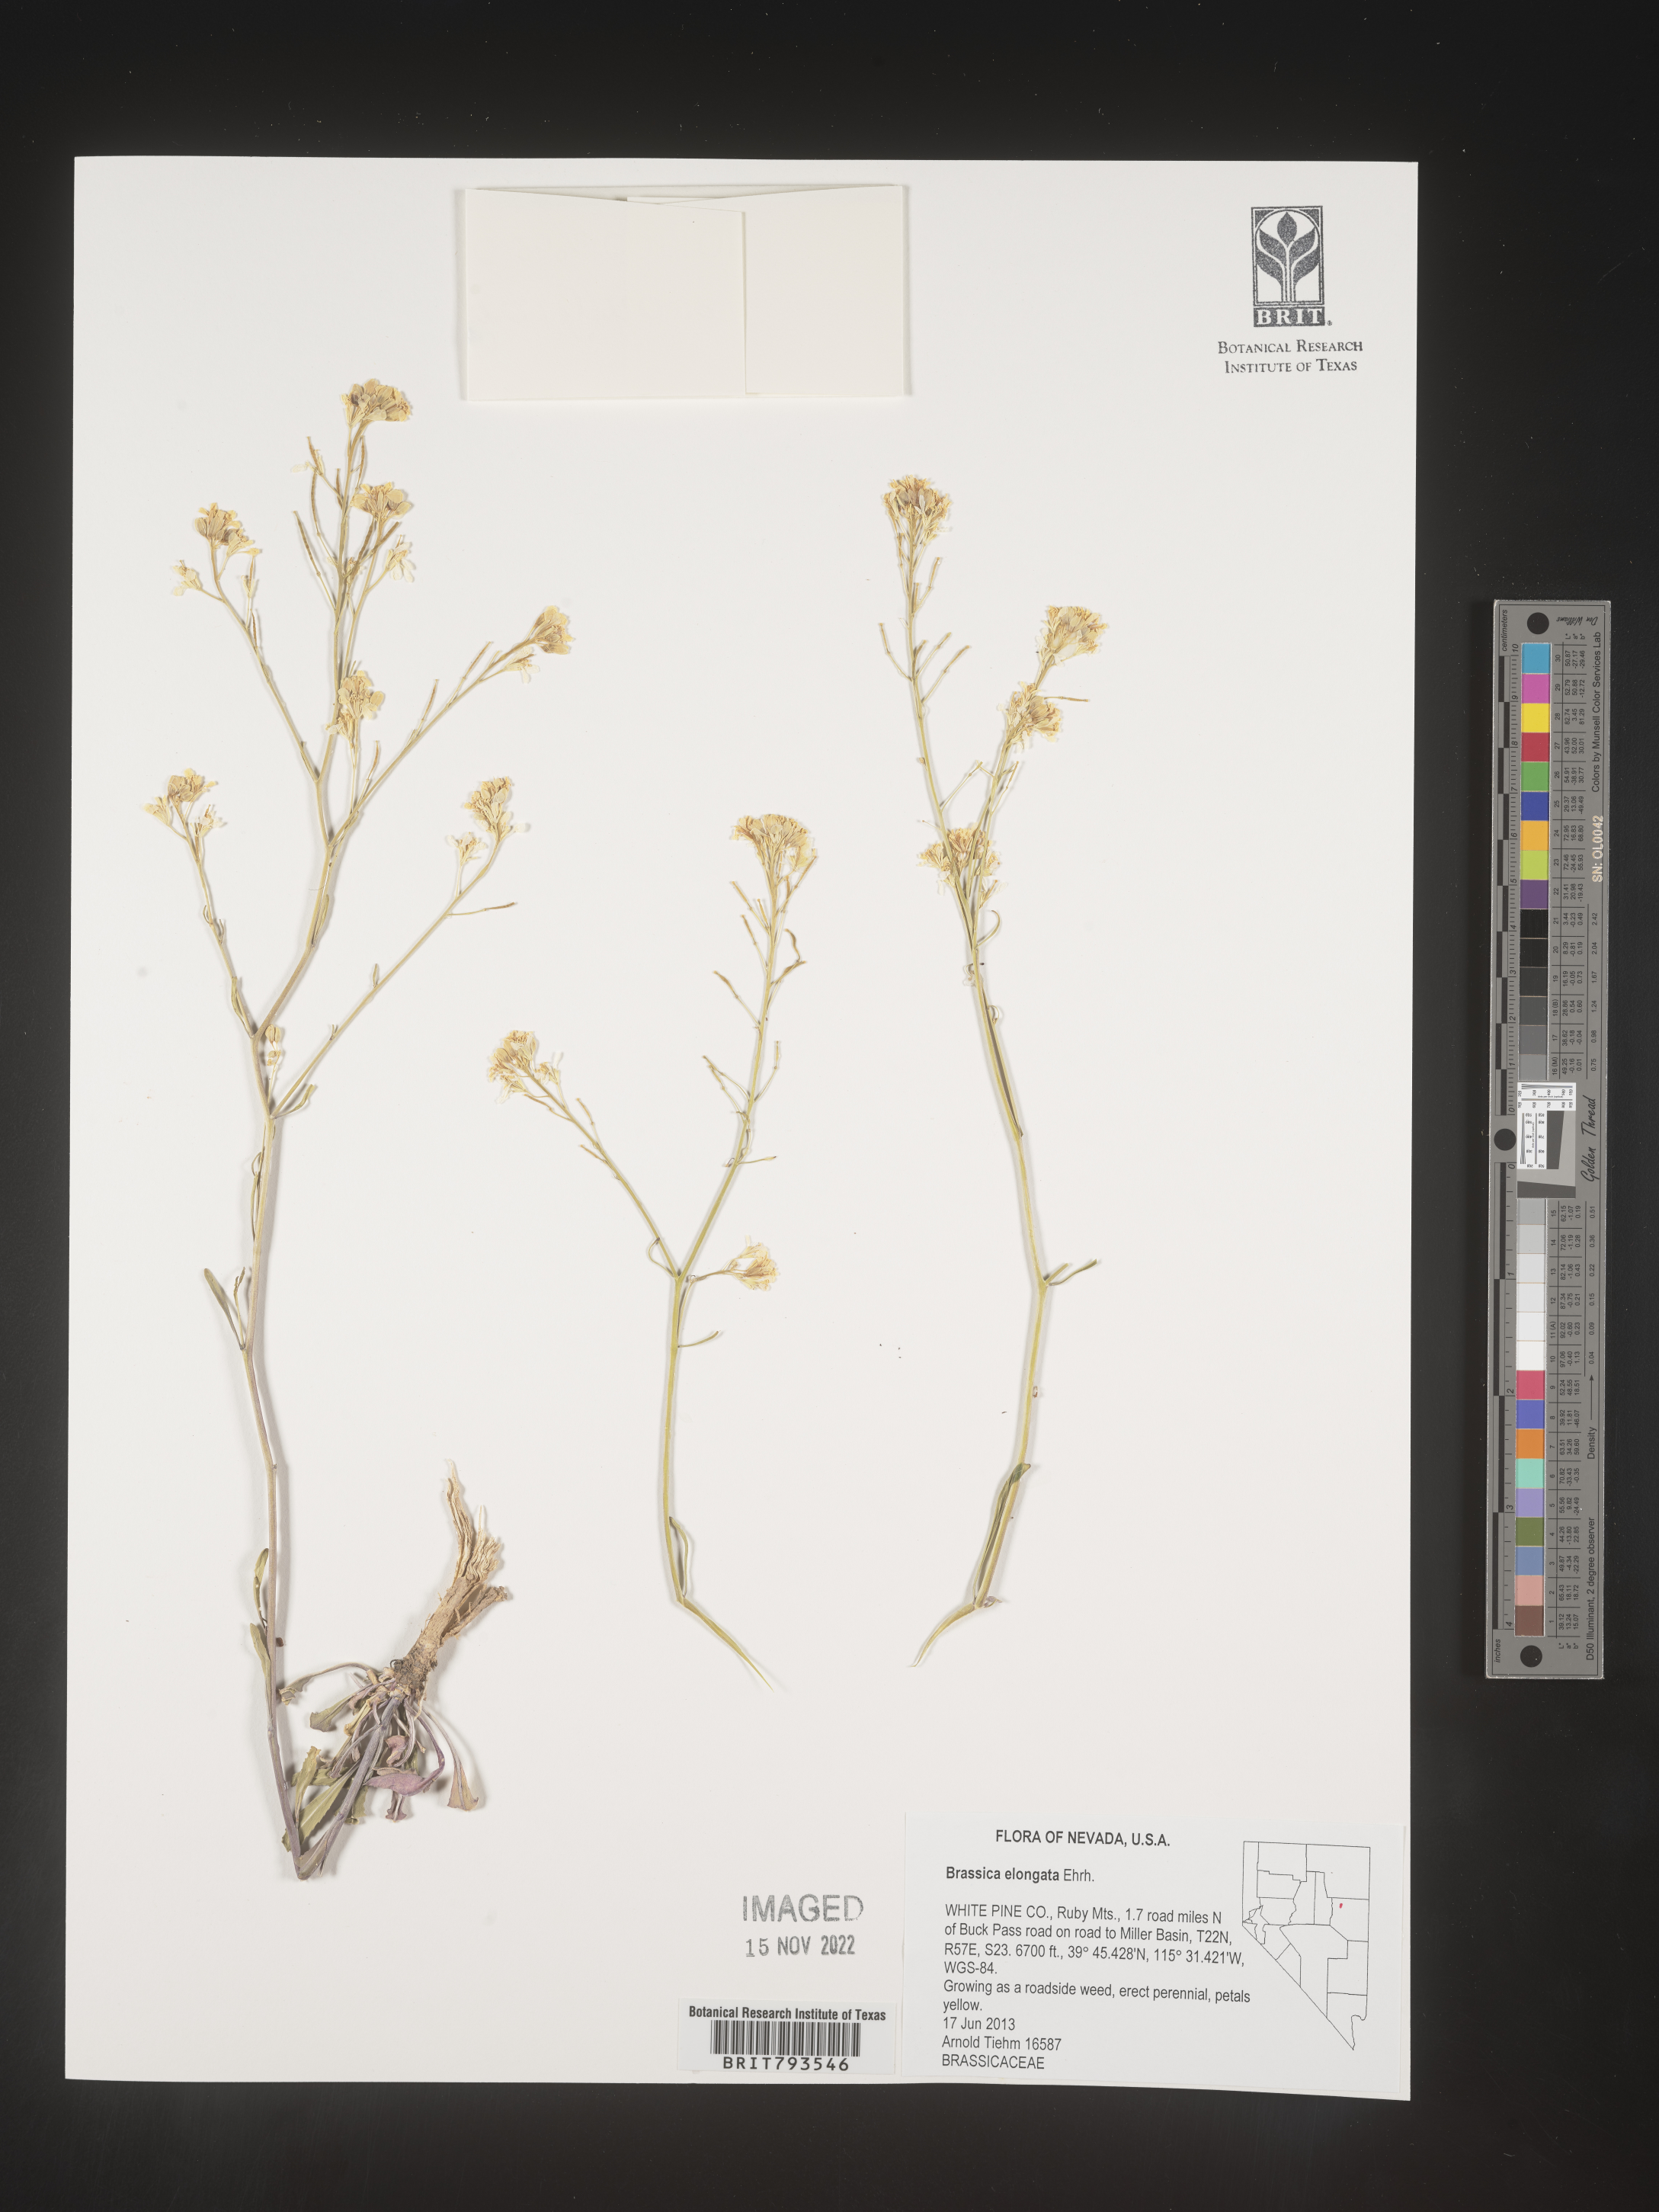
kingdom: Plantae
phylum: Tracheophyta
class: Magnoliopsida
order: Brassicales
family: Brassicaceae
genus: Brassica
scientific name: Brassica elongata
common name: Long-stalked rape
